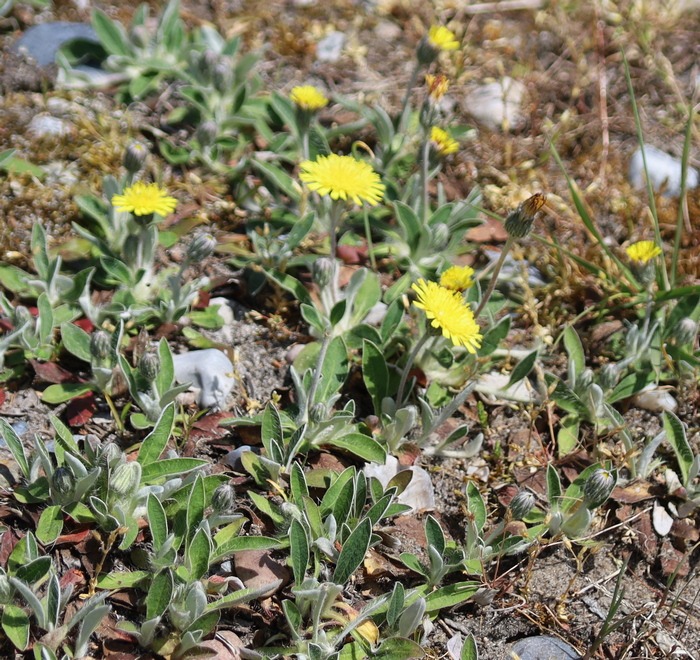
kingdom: Plantae
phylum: Tracheophyta
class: Magnoliopsida
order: Asterales
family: Asteraceae
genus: Pilosella
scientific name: Pilosella officinarum
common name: Håret høgeurt
